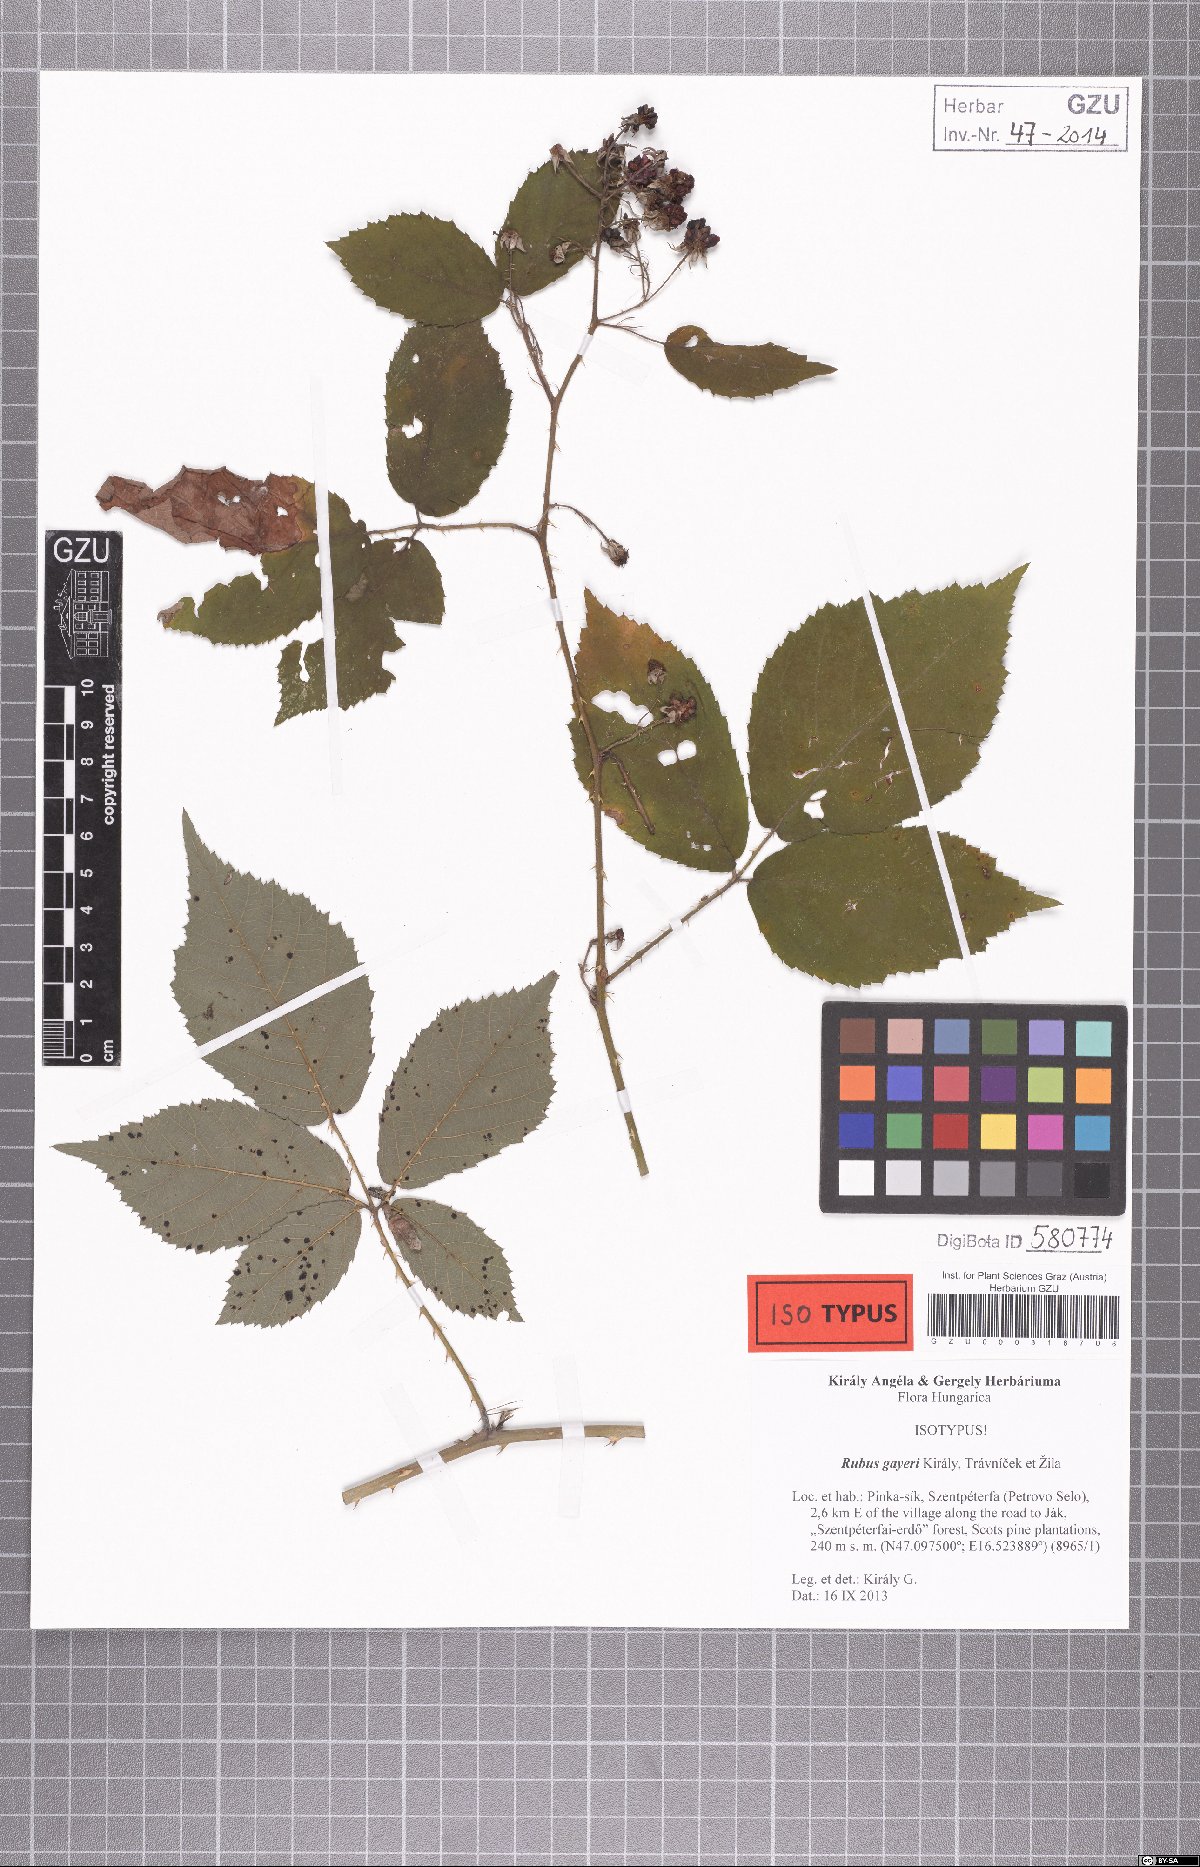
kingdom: Plantae
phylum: Tracheophyta
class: Magnoliopsida
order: Rosales
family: Rosaceae
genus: Rubus
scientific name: Rubus gayeri
